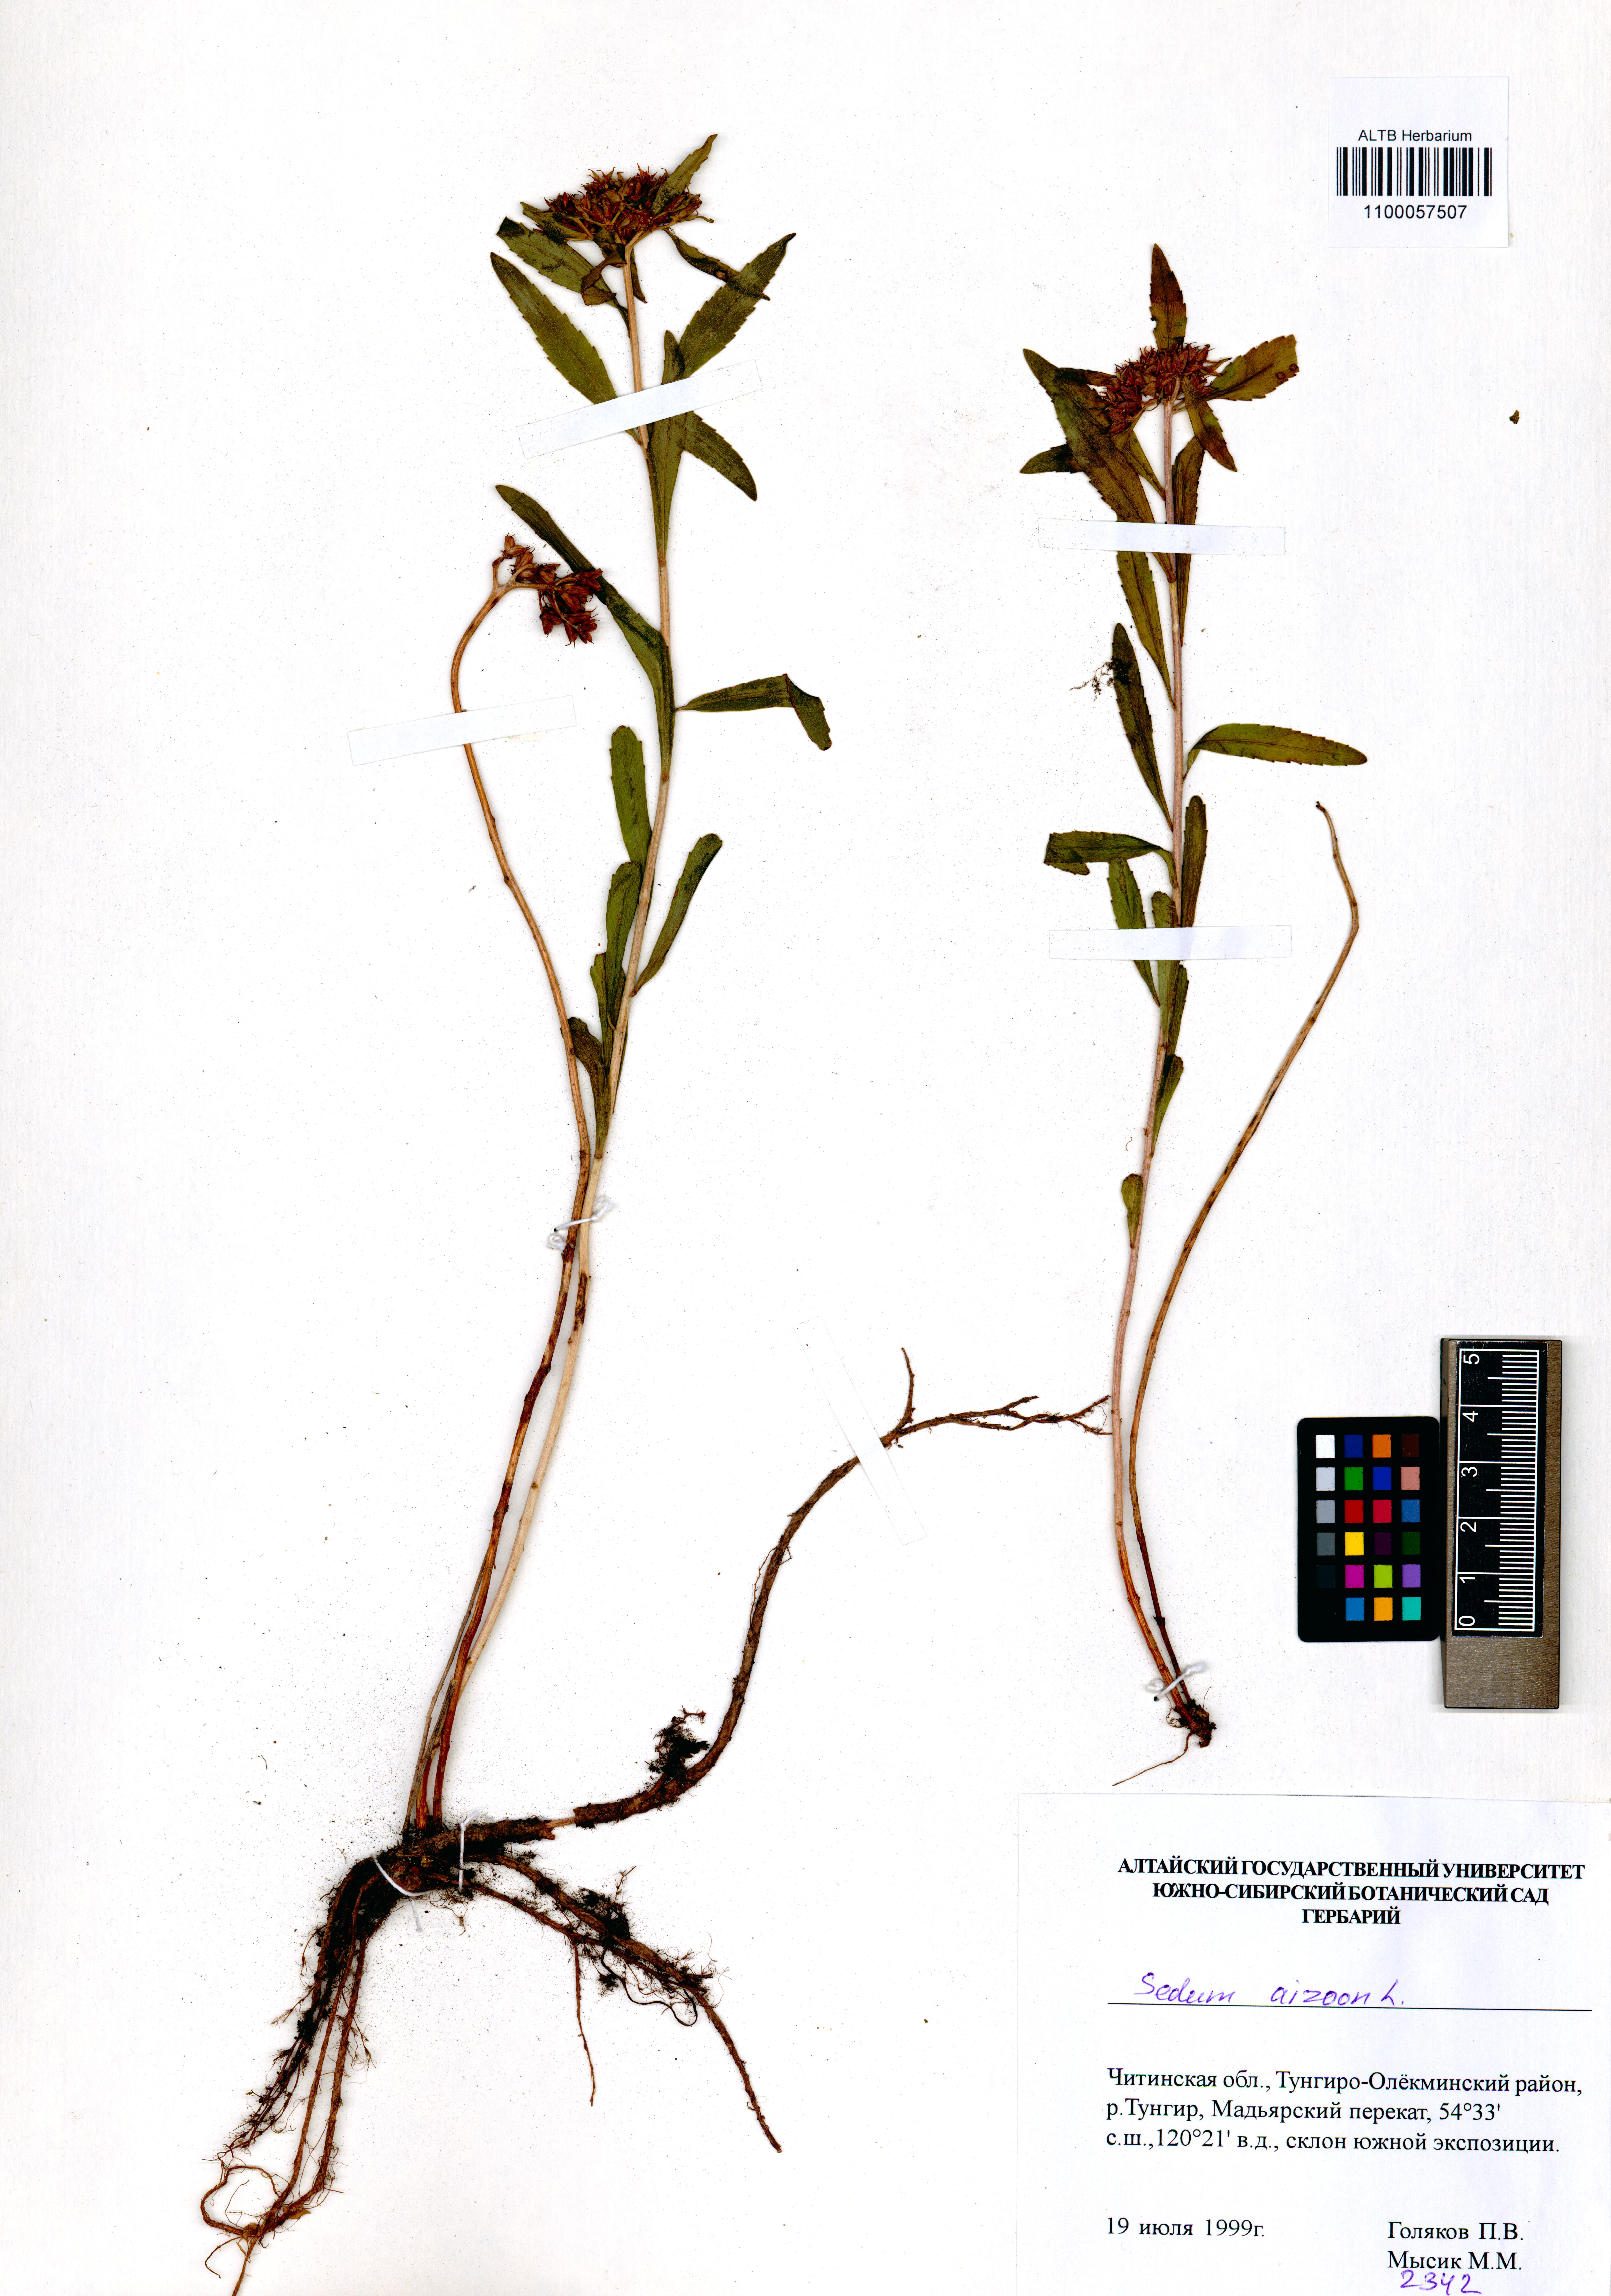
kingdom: Plantae
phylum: Tracheophyta
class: Magnoliopsida
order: Saxifragales
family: Crassulaceae
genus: Phedimus
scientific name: Phedimus aizoon
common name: Orpin aizoon
